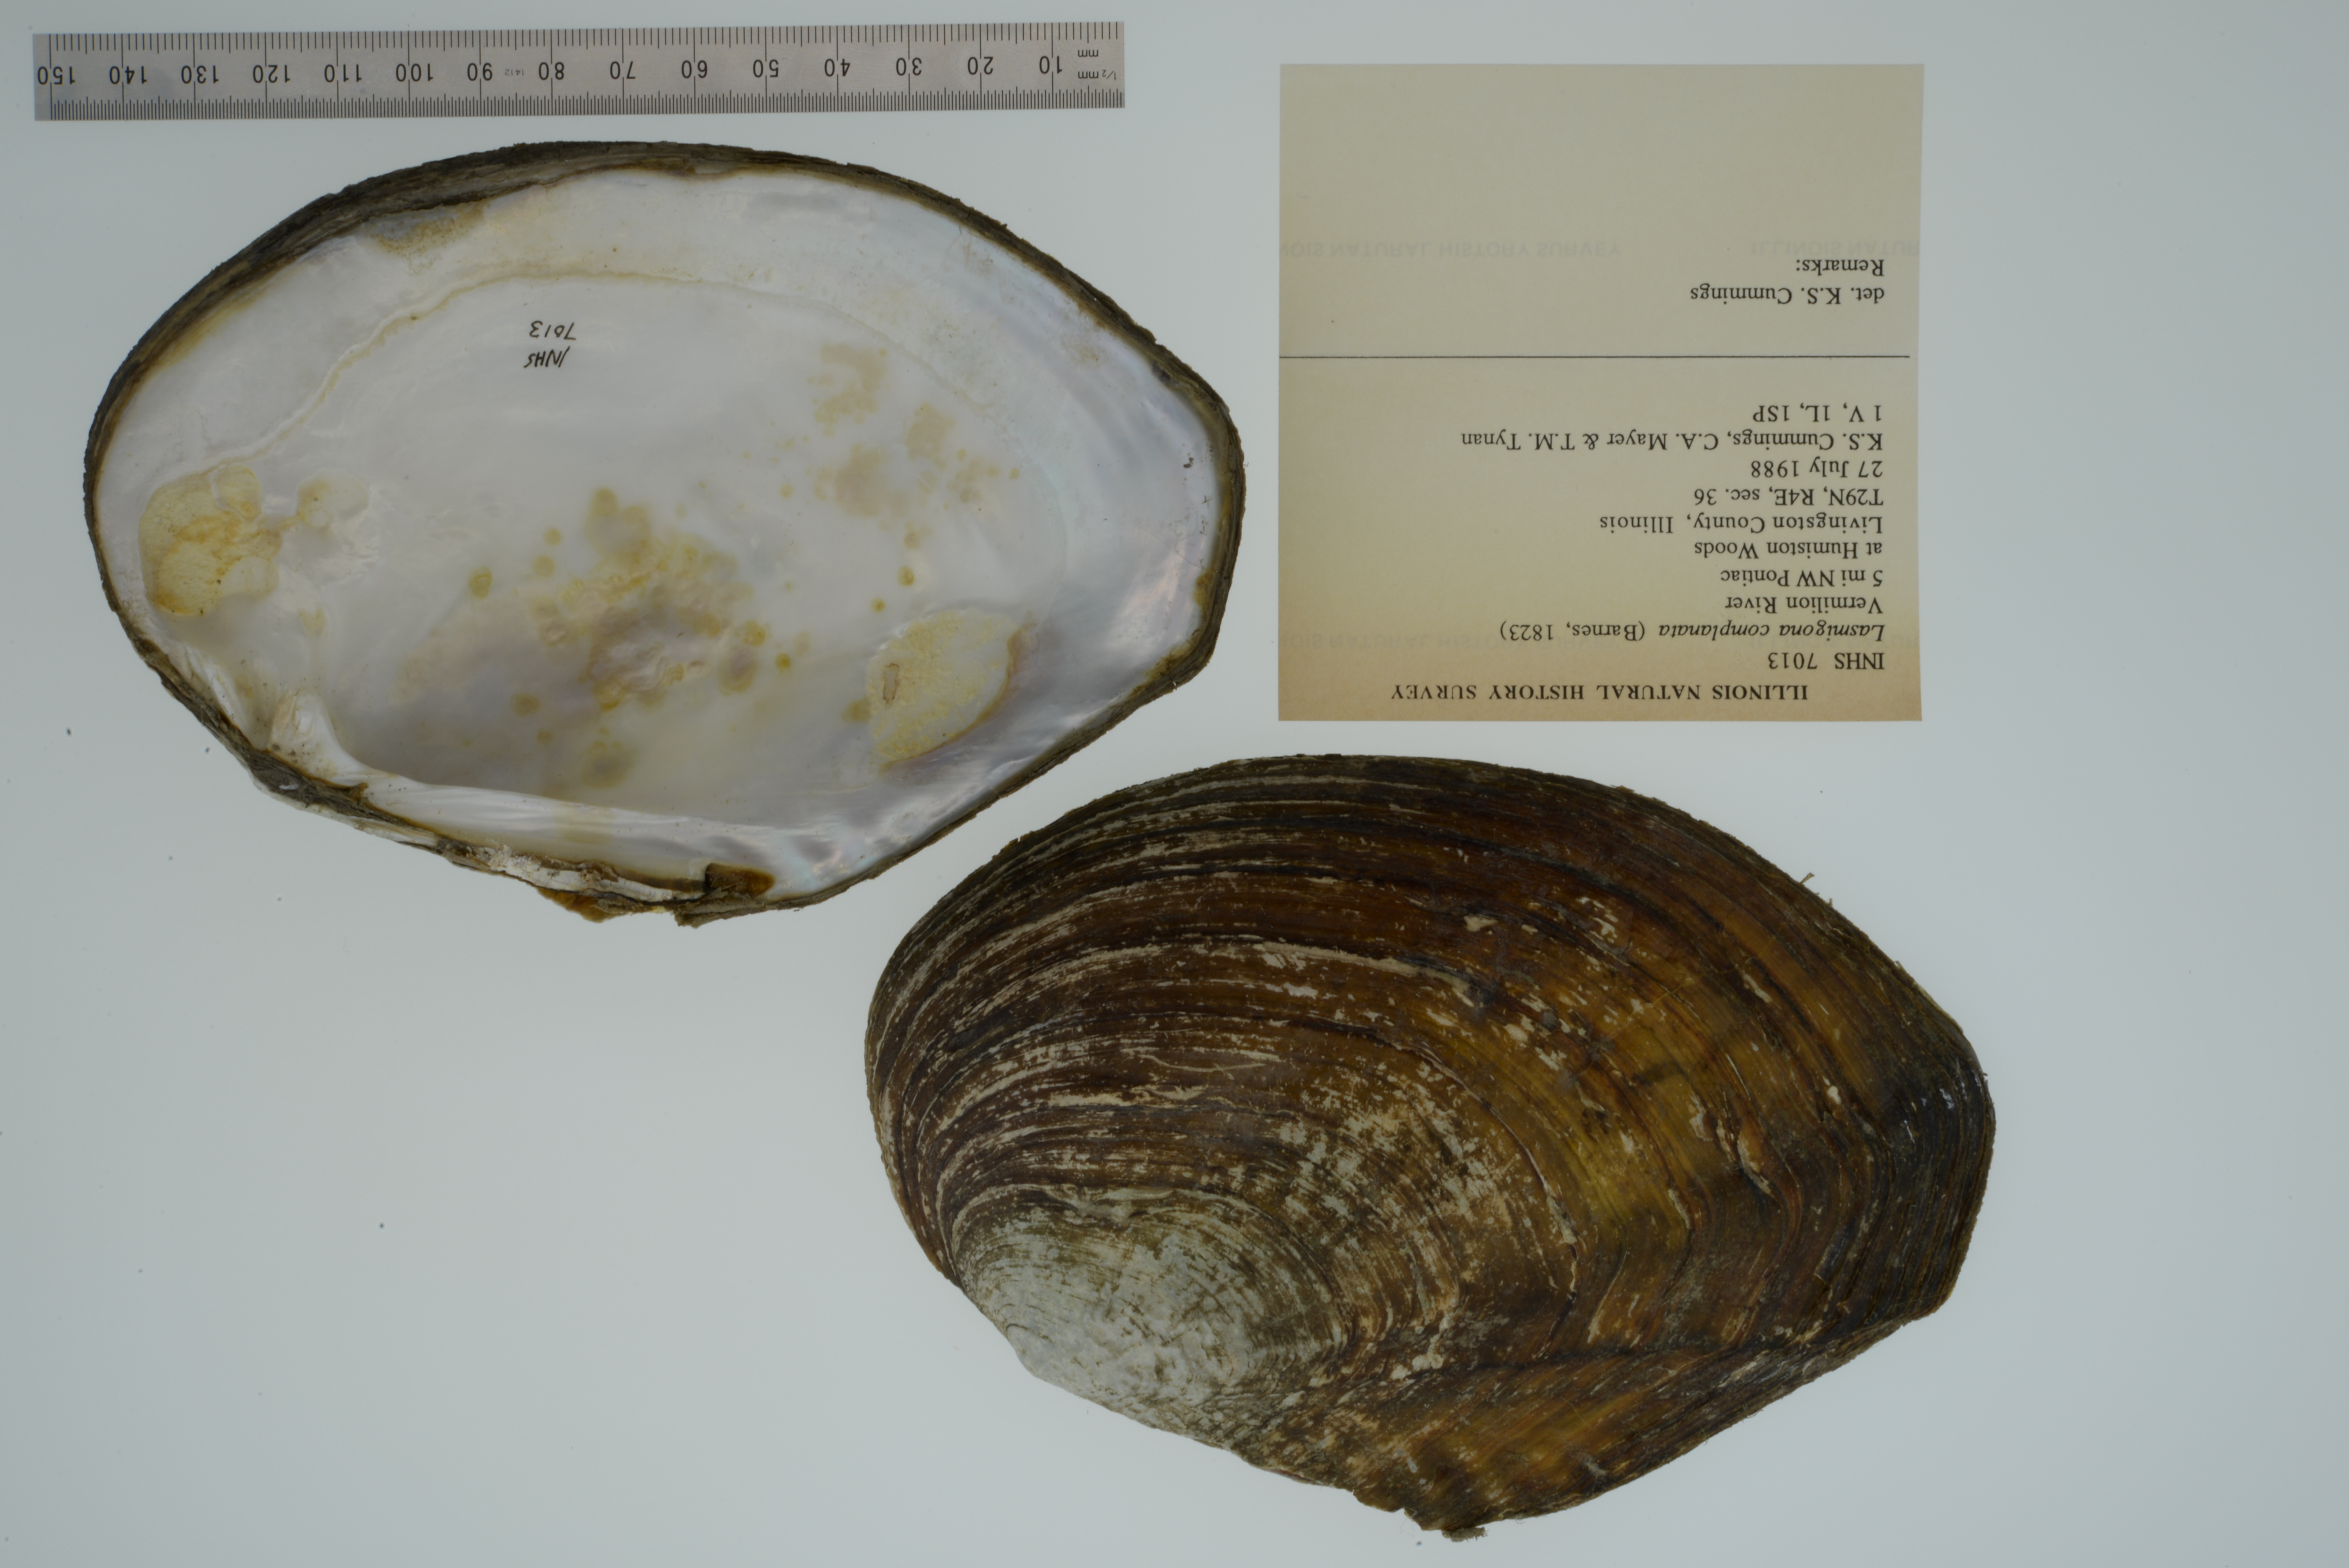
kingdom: Animalia
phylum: Mollusca
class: Bivalvia
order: Unionida
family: Unionidae
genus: Lasmigona
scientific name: Lasmigona complanata
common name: White heelsplitter
